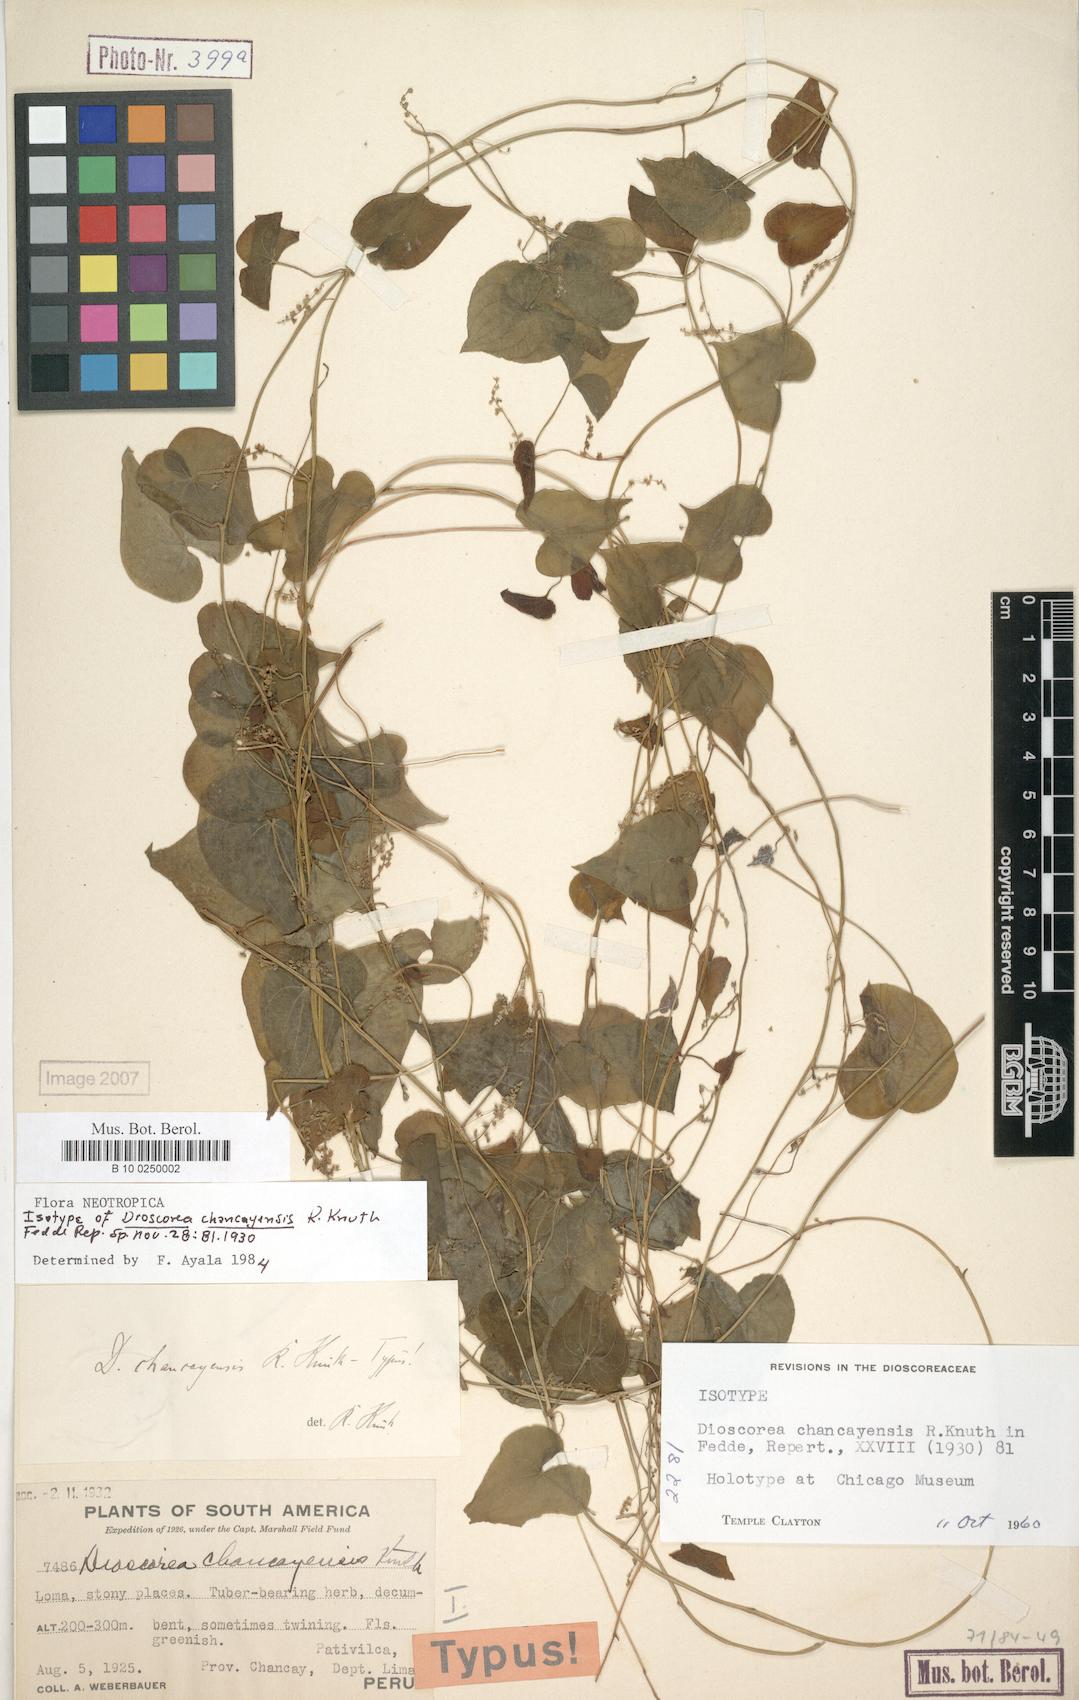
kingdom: Plantae
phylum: Tracheophyta
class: Liliopsida
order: Dioscoreales
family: Dioscoreaceae
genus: Dioscorea
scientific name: Dioscorea chancayensis
